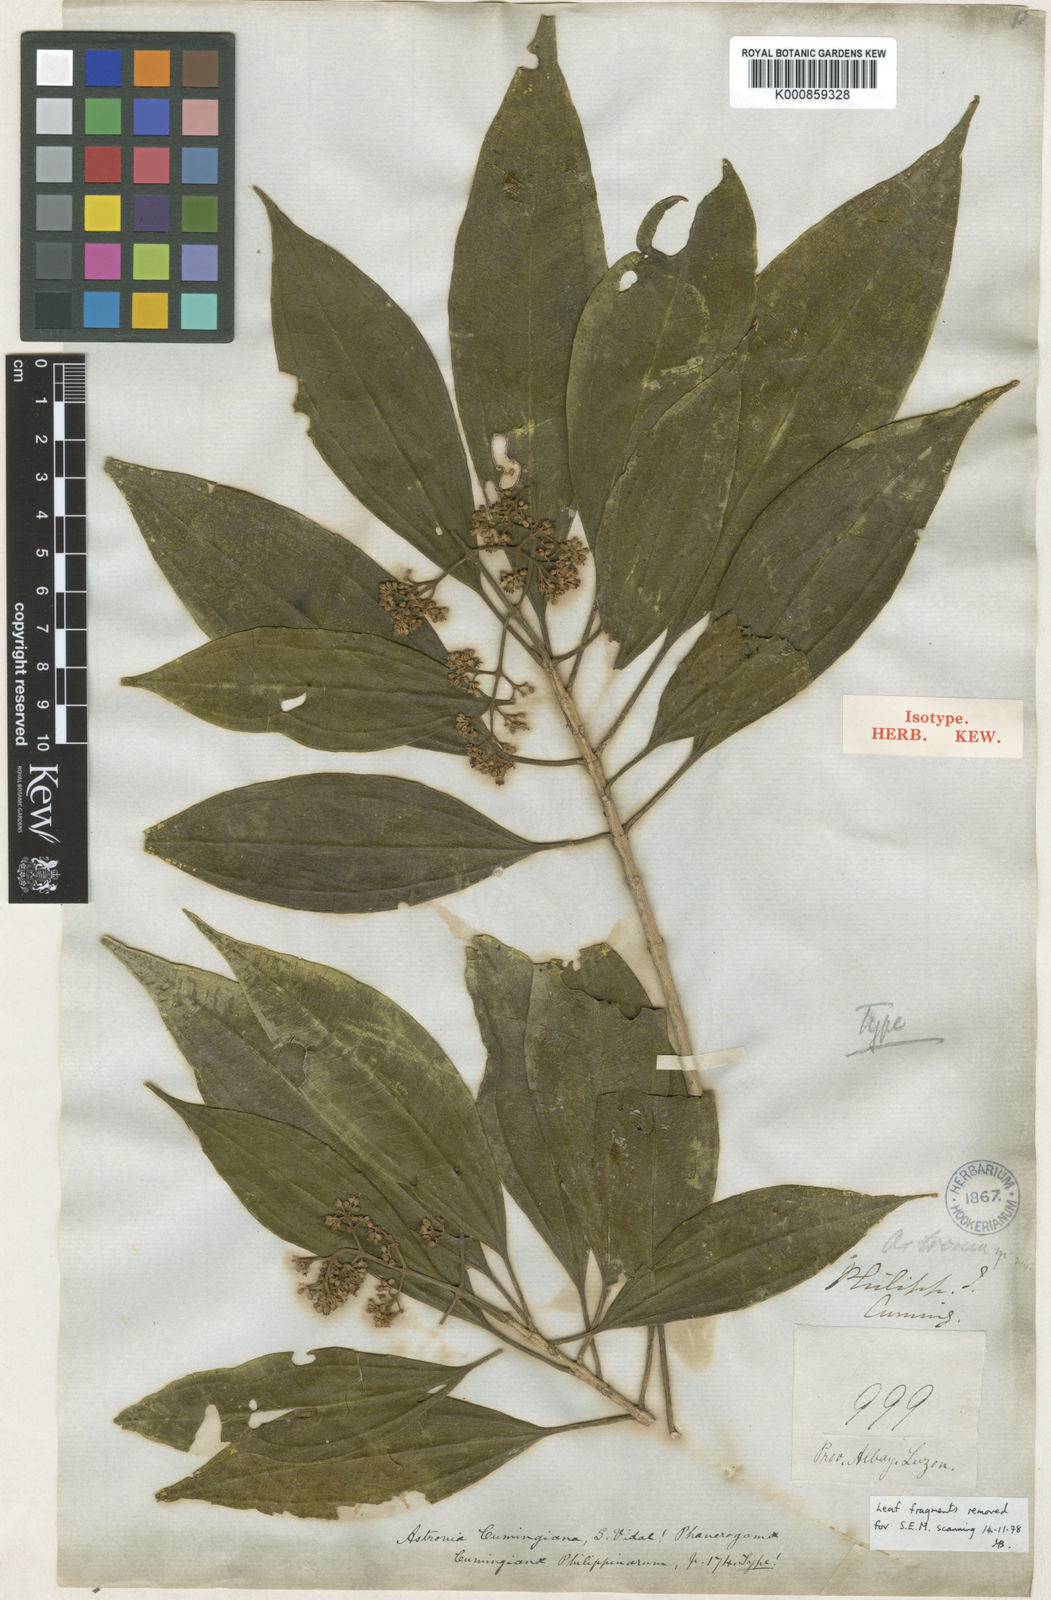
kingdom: Plantae
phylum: Tracheophyta
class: Magnoliopsida
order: Myrtales
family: Melastomataceae
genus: Astronia
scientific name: Astronia cumingiana
